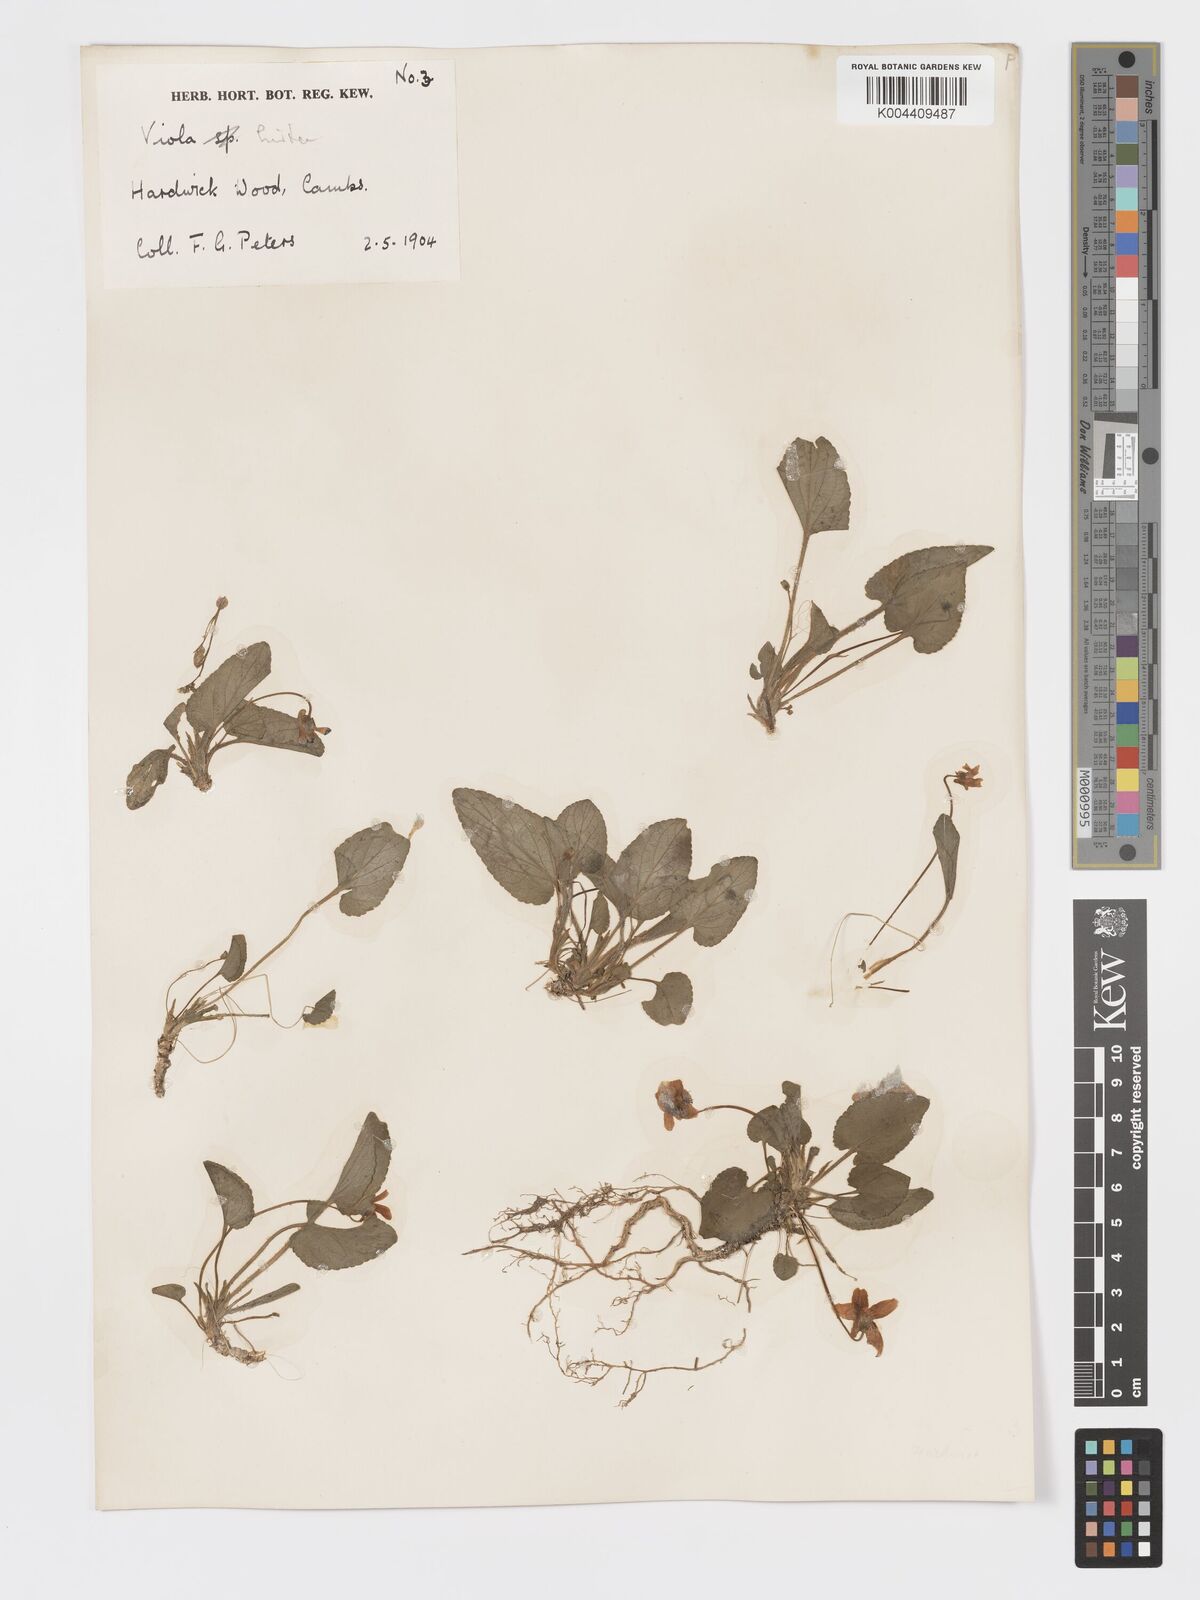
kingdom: Plantae
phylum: Tracheophyta
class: Magnoliopsida
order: Malpighiales
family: Violaceae
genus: Viola
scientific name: Viola
